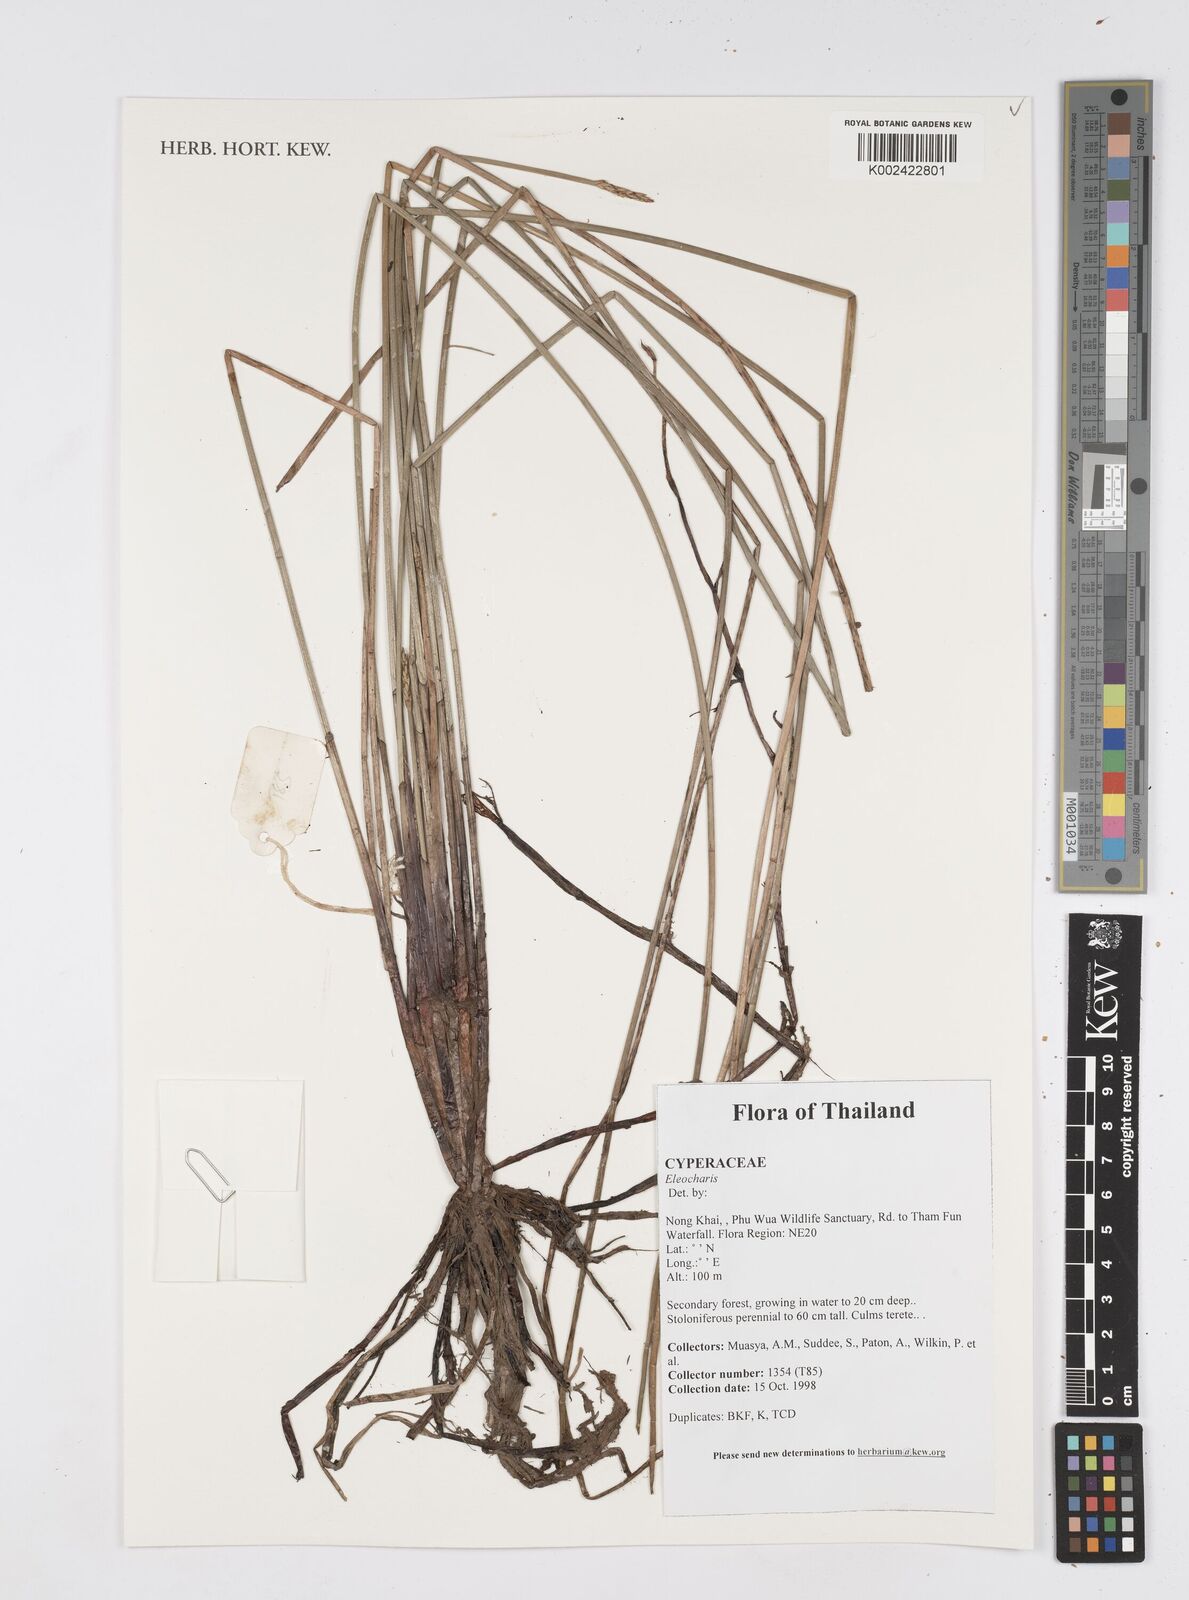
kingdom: Plantae
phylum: Tracheophyta
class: Liliopsida
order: Poales
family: Cyperaceae
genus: Eleocharis
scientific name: Eleocharis
